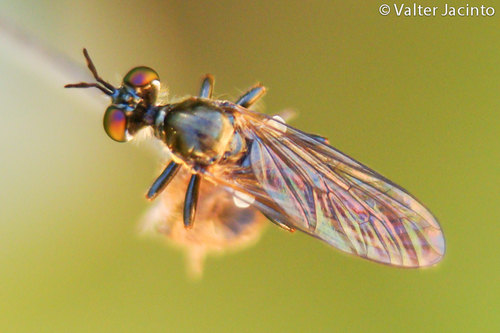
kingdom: Animalia
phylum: Arthropoda
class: Insecta
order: Diptera
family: Asilidae
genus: Dioctria
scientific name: Dioctria
